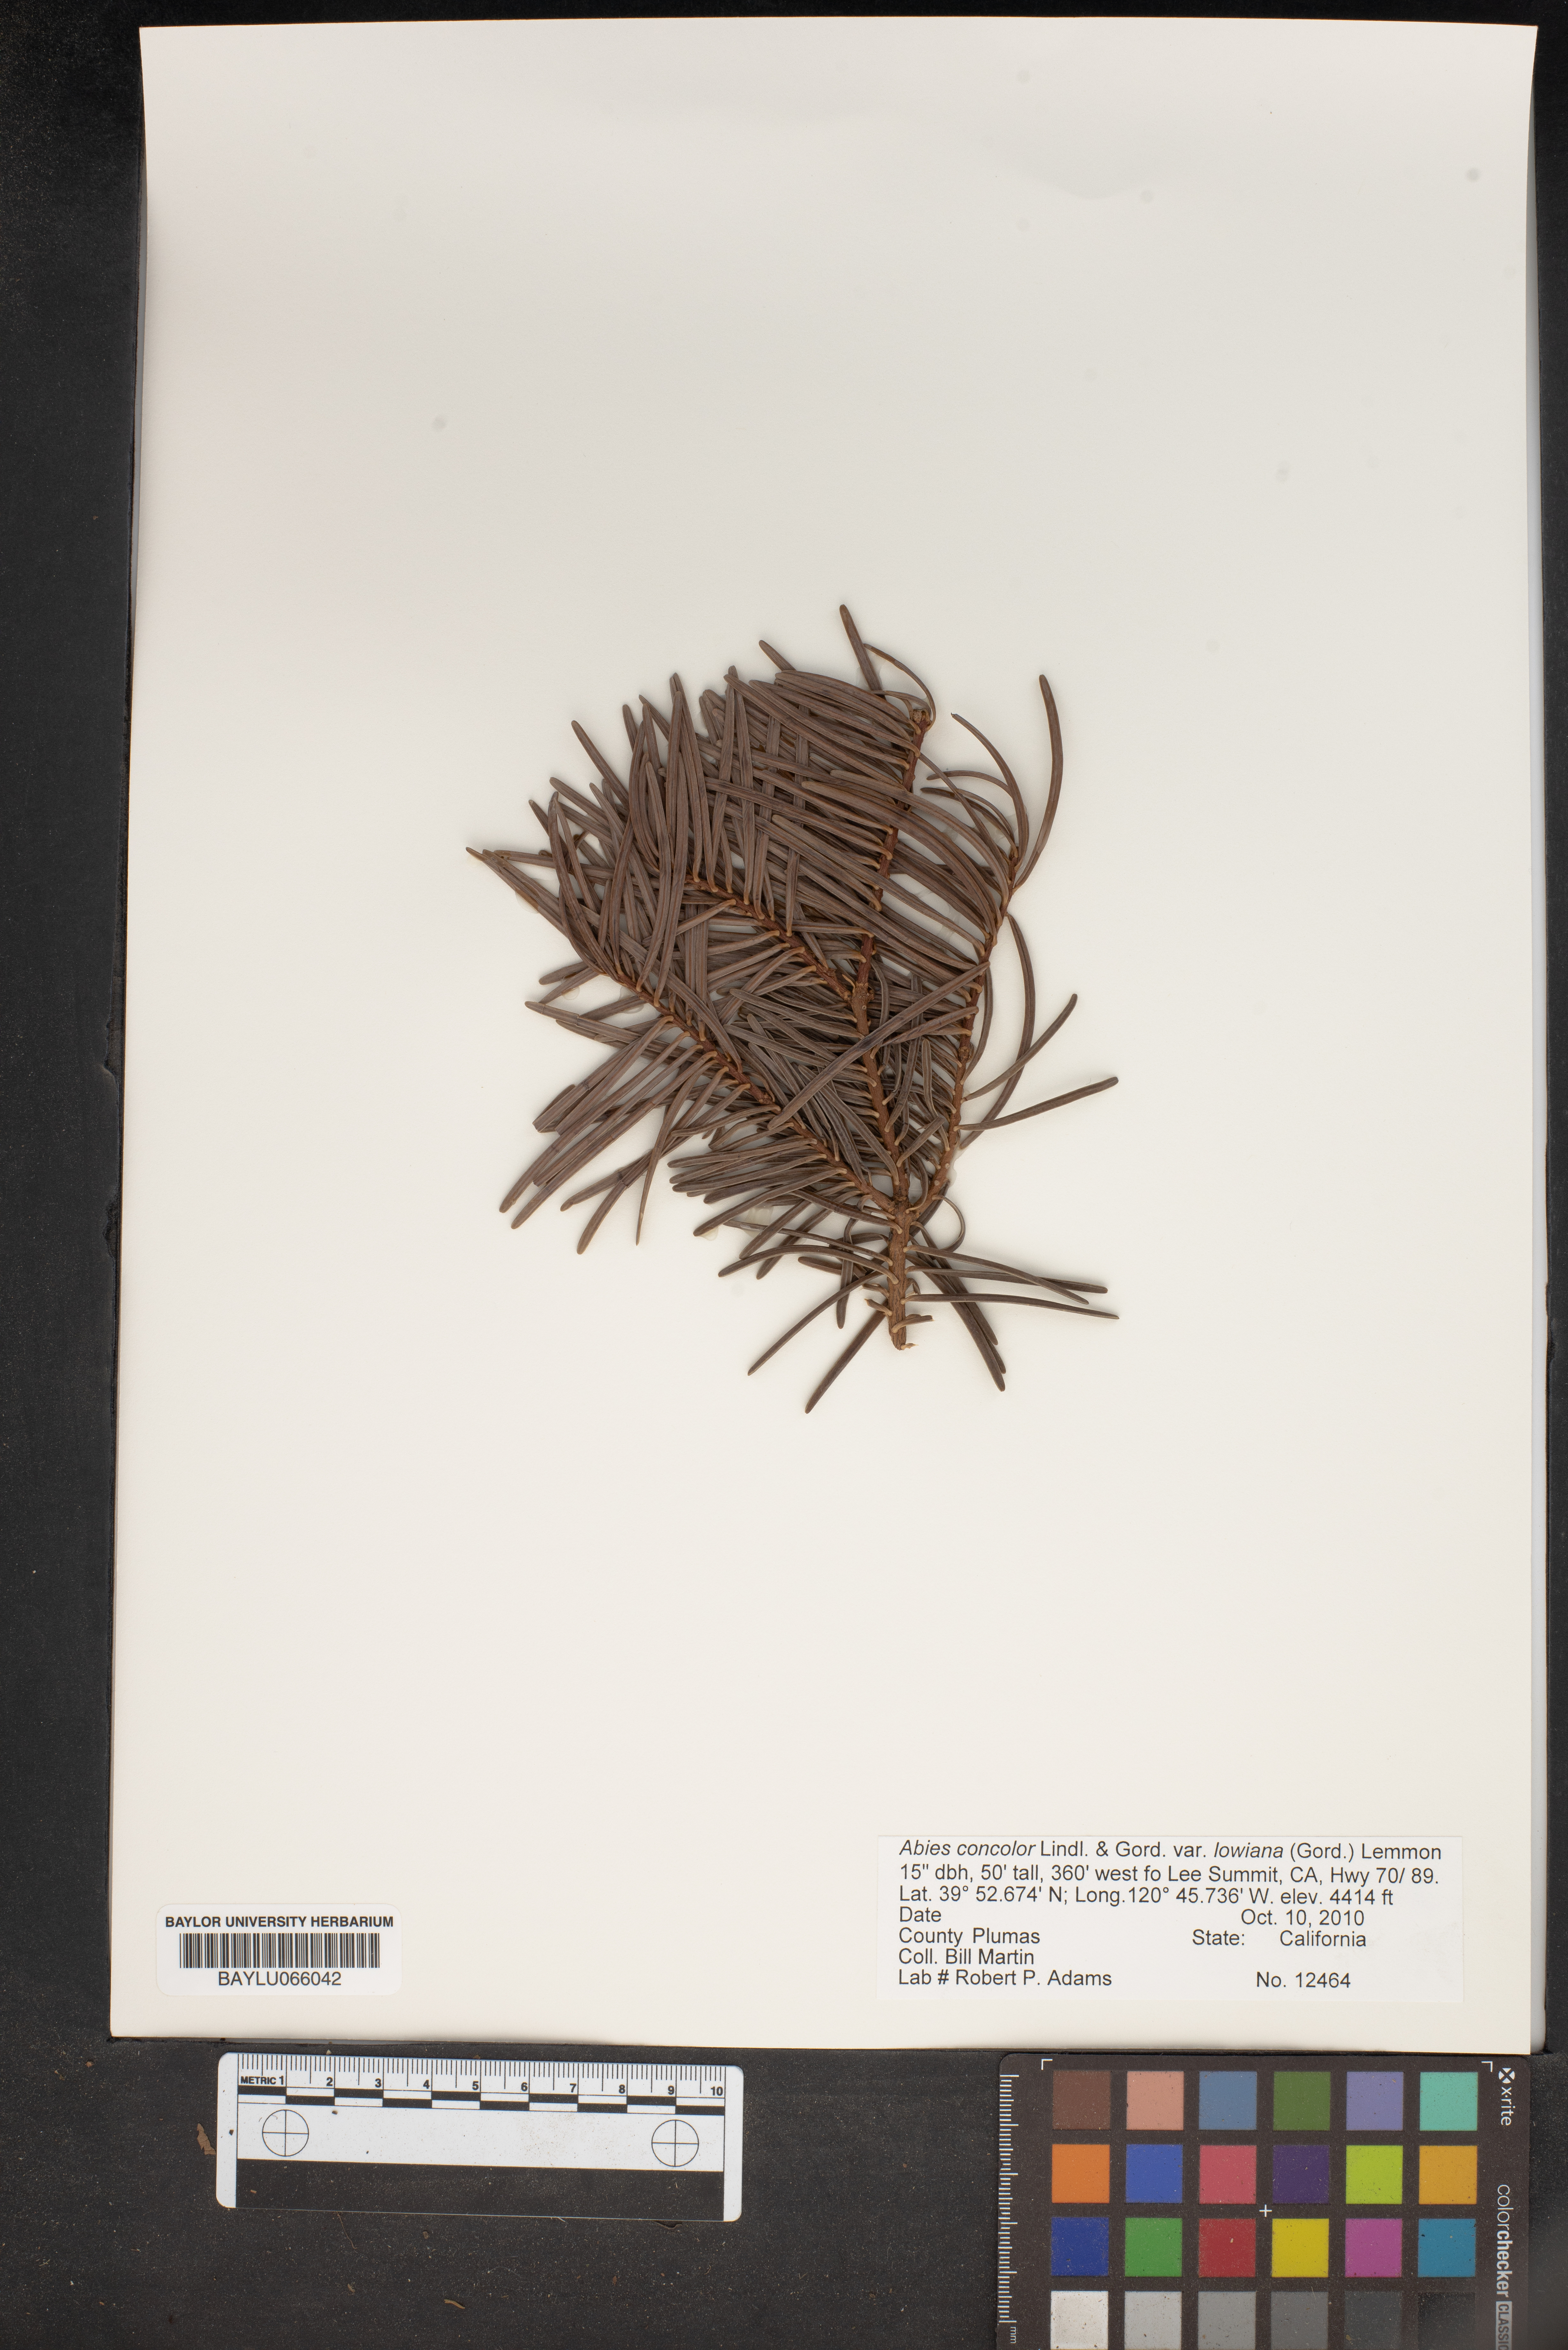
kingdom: Plantae
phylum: Tracheophyta
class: Pinopsida
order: Pinales
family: Pinaceae
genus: Abies
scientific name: Abies concolor
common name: Colorado fir
